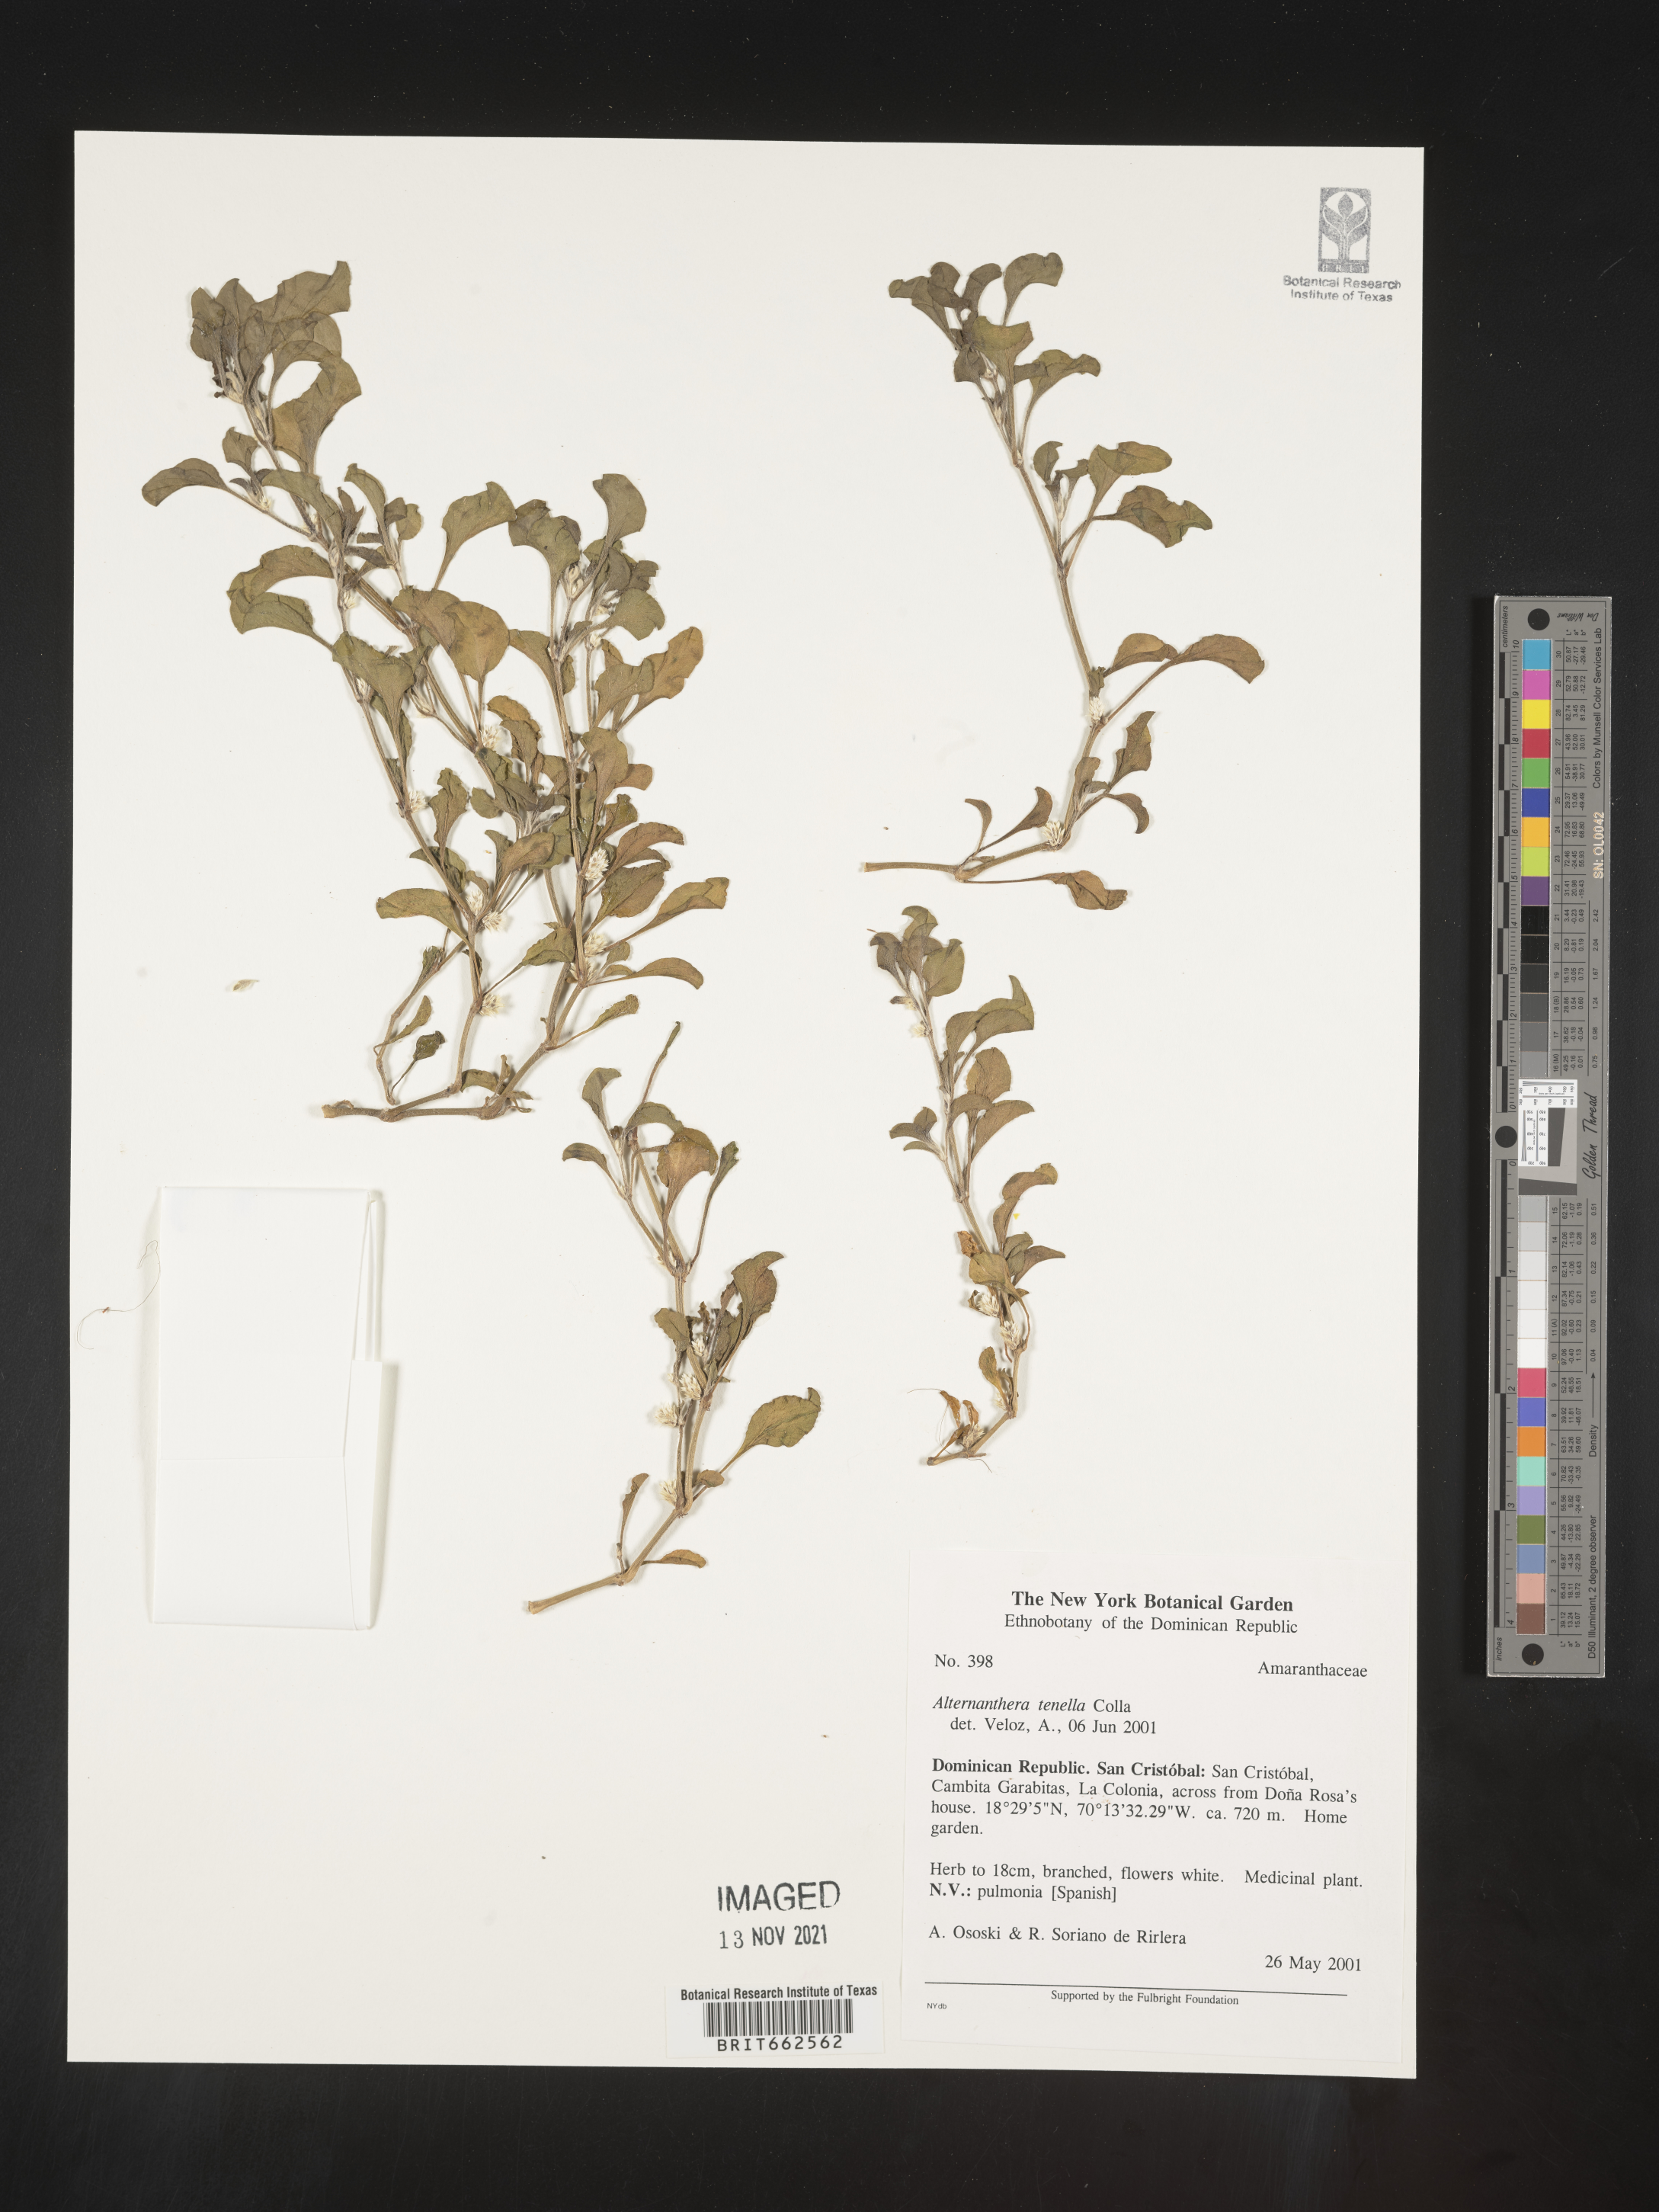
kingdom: Plantae
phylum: Tracheophyta
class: Magnoliopsida
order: Caryophyllales
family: Amaranthaceae
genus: Alternanthera
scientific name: Alternanthera
